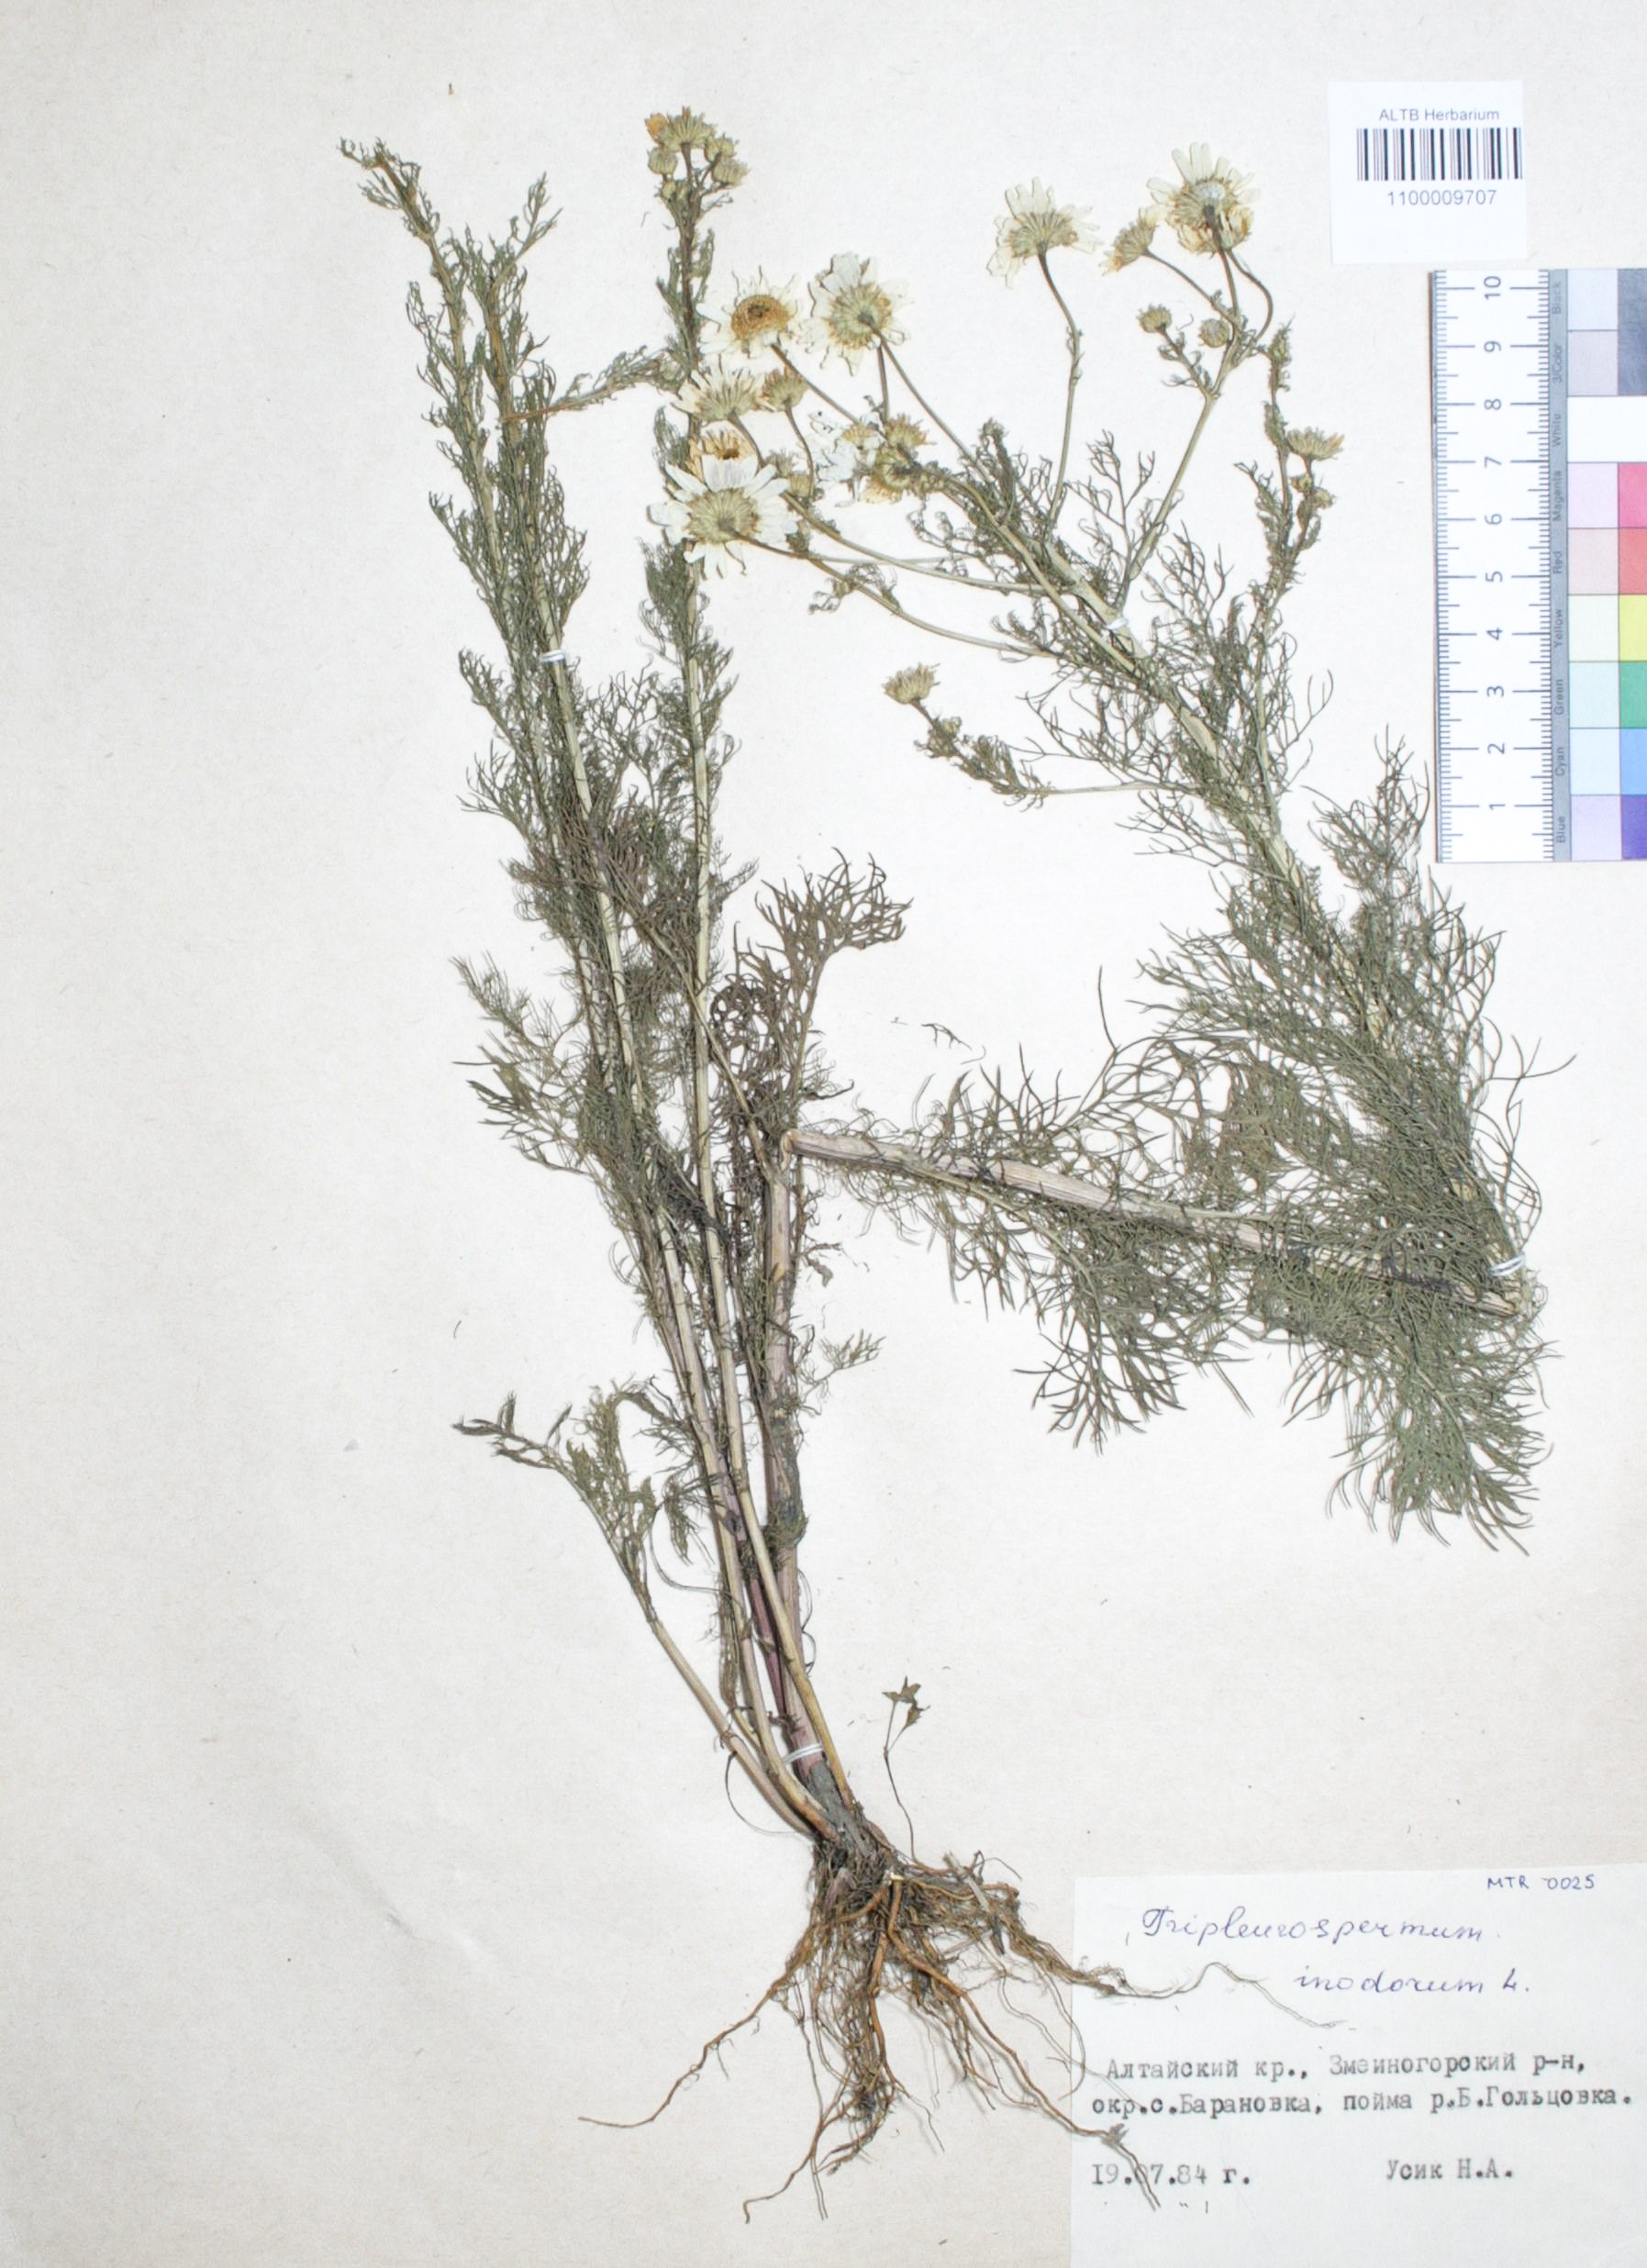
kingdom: Plantae
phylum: Tracheophyta
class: Magnoliopsida
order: Asterales
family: Asteraceae
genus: Tripleurospermum
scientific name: Tripleurospermum inodorum
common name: Scentless mayweed
